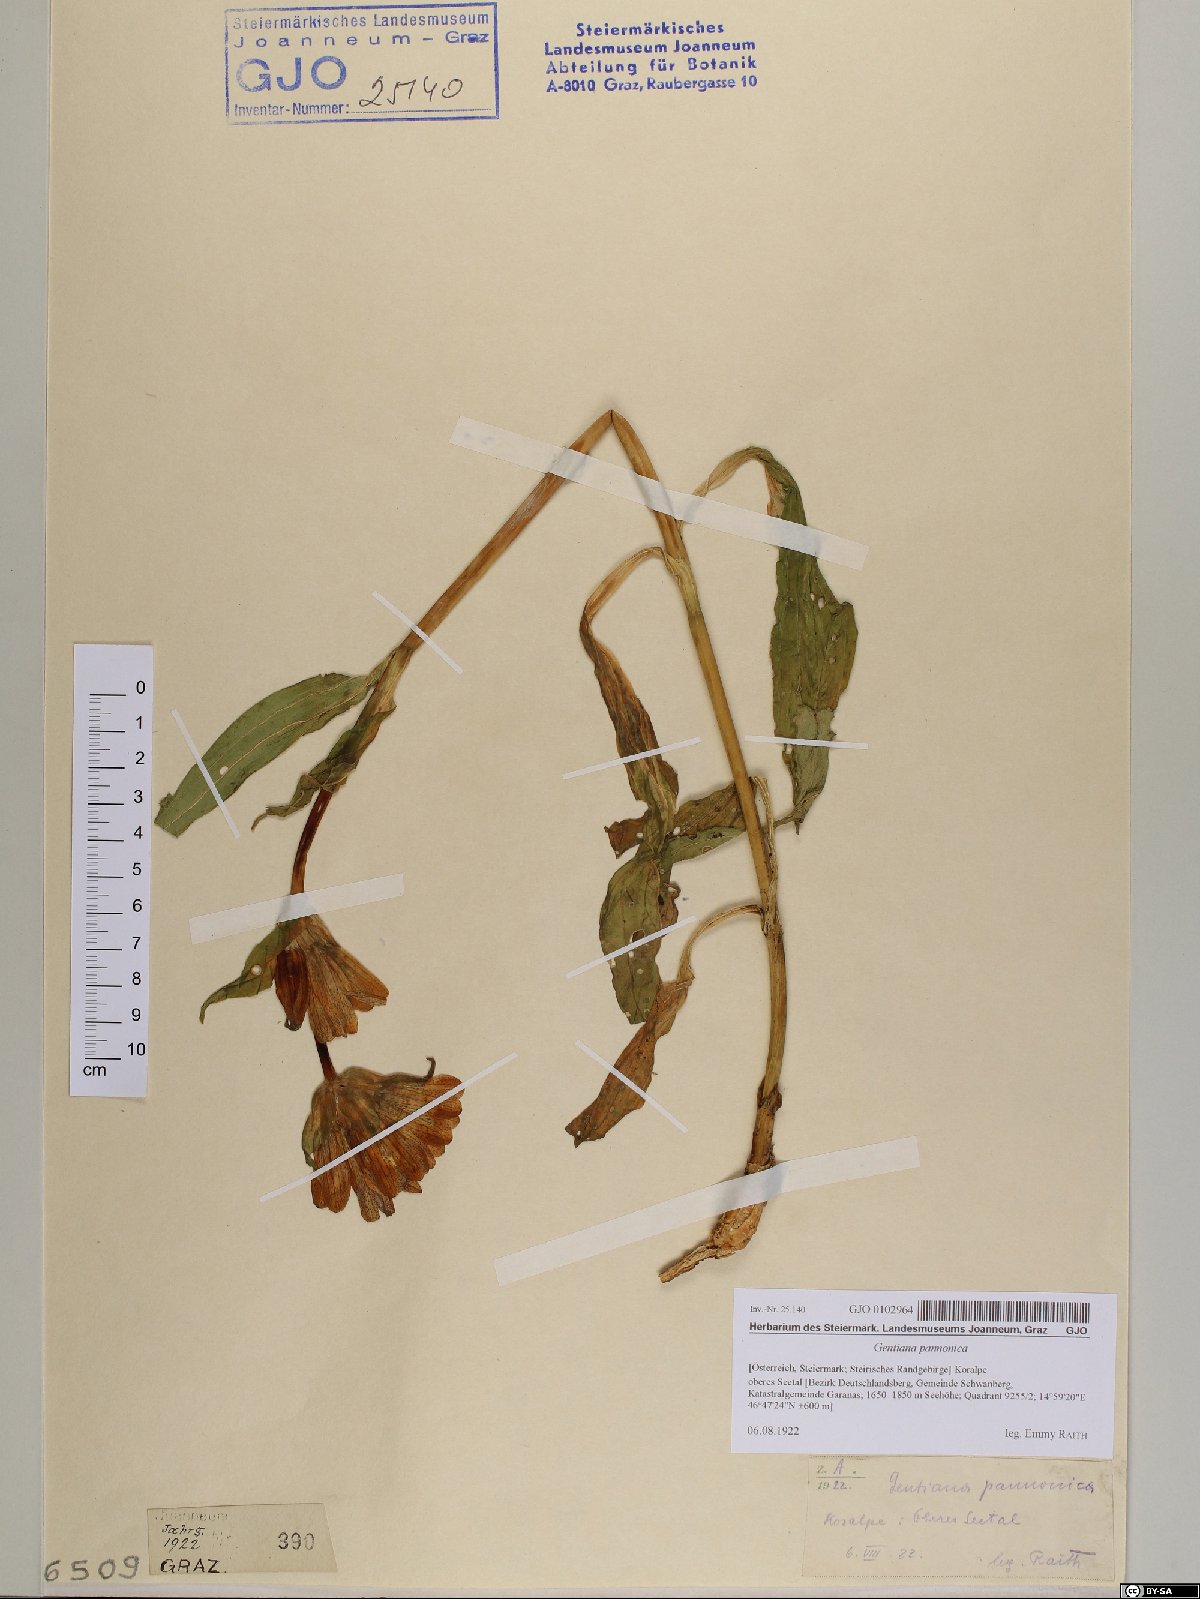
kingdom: Plantae
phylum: Tracheophyta
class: Magnoliopsida
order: Gentianales
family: Gentianaceae
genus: Gentiana
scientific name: Gentiana pannonica
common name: Hungarian gentian
